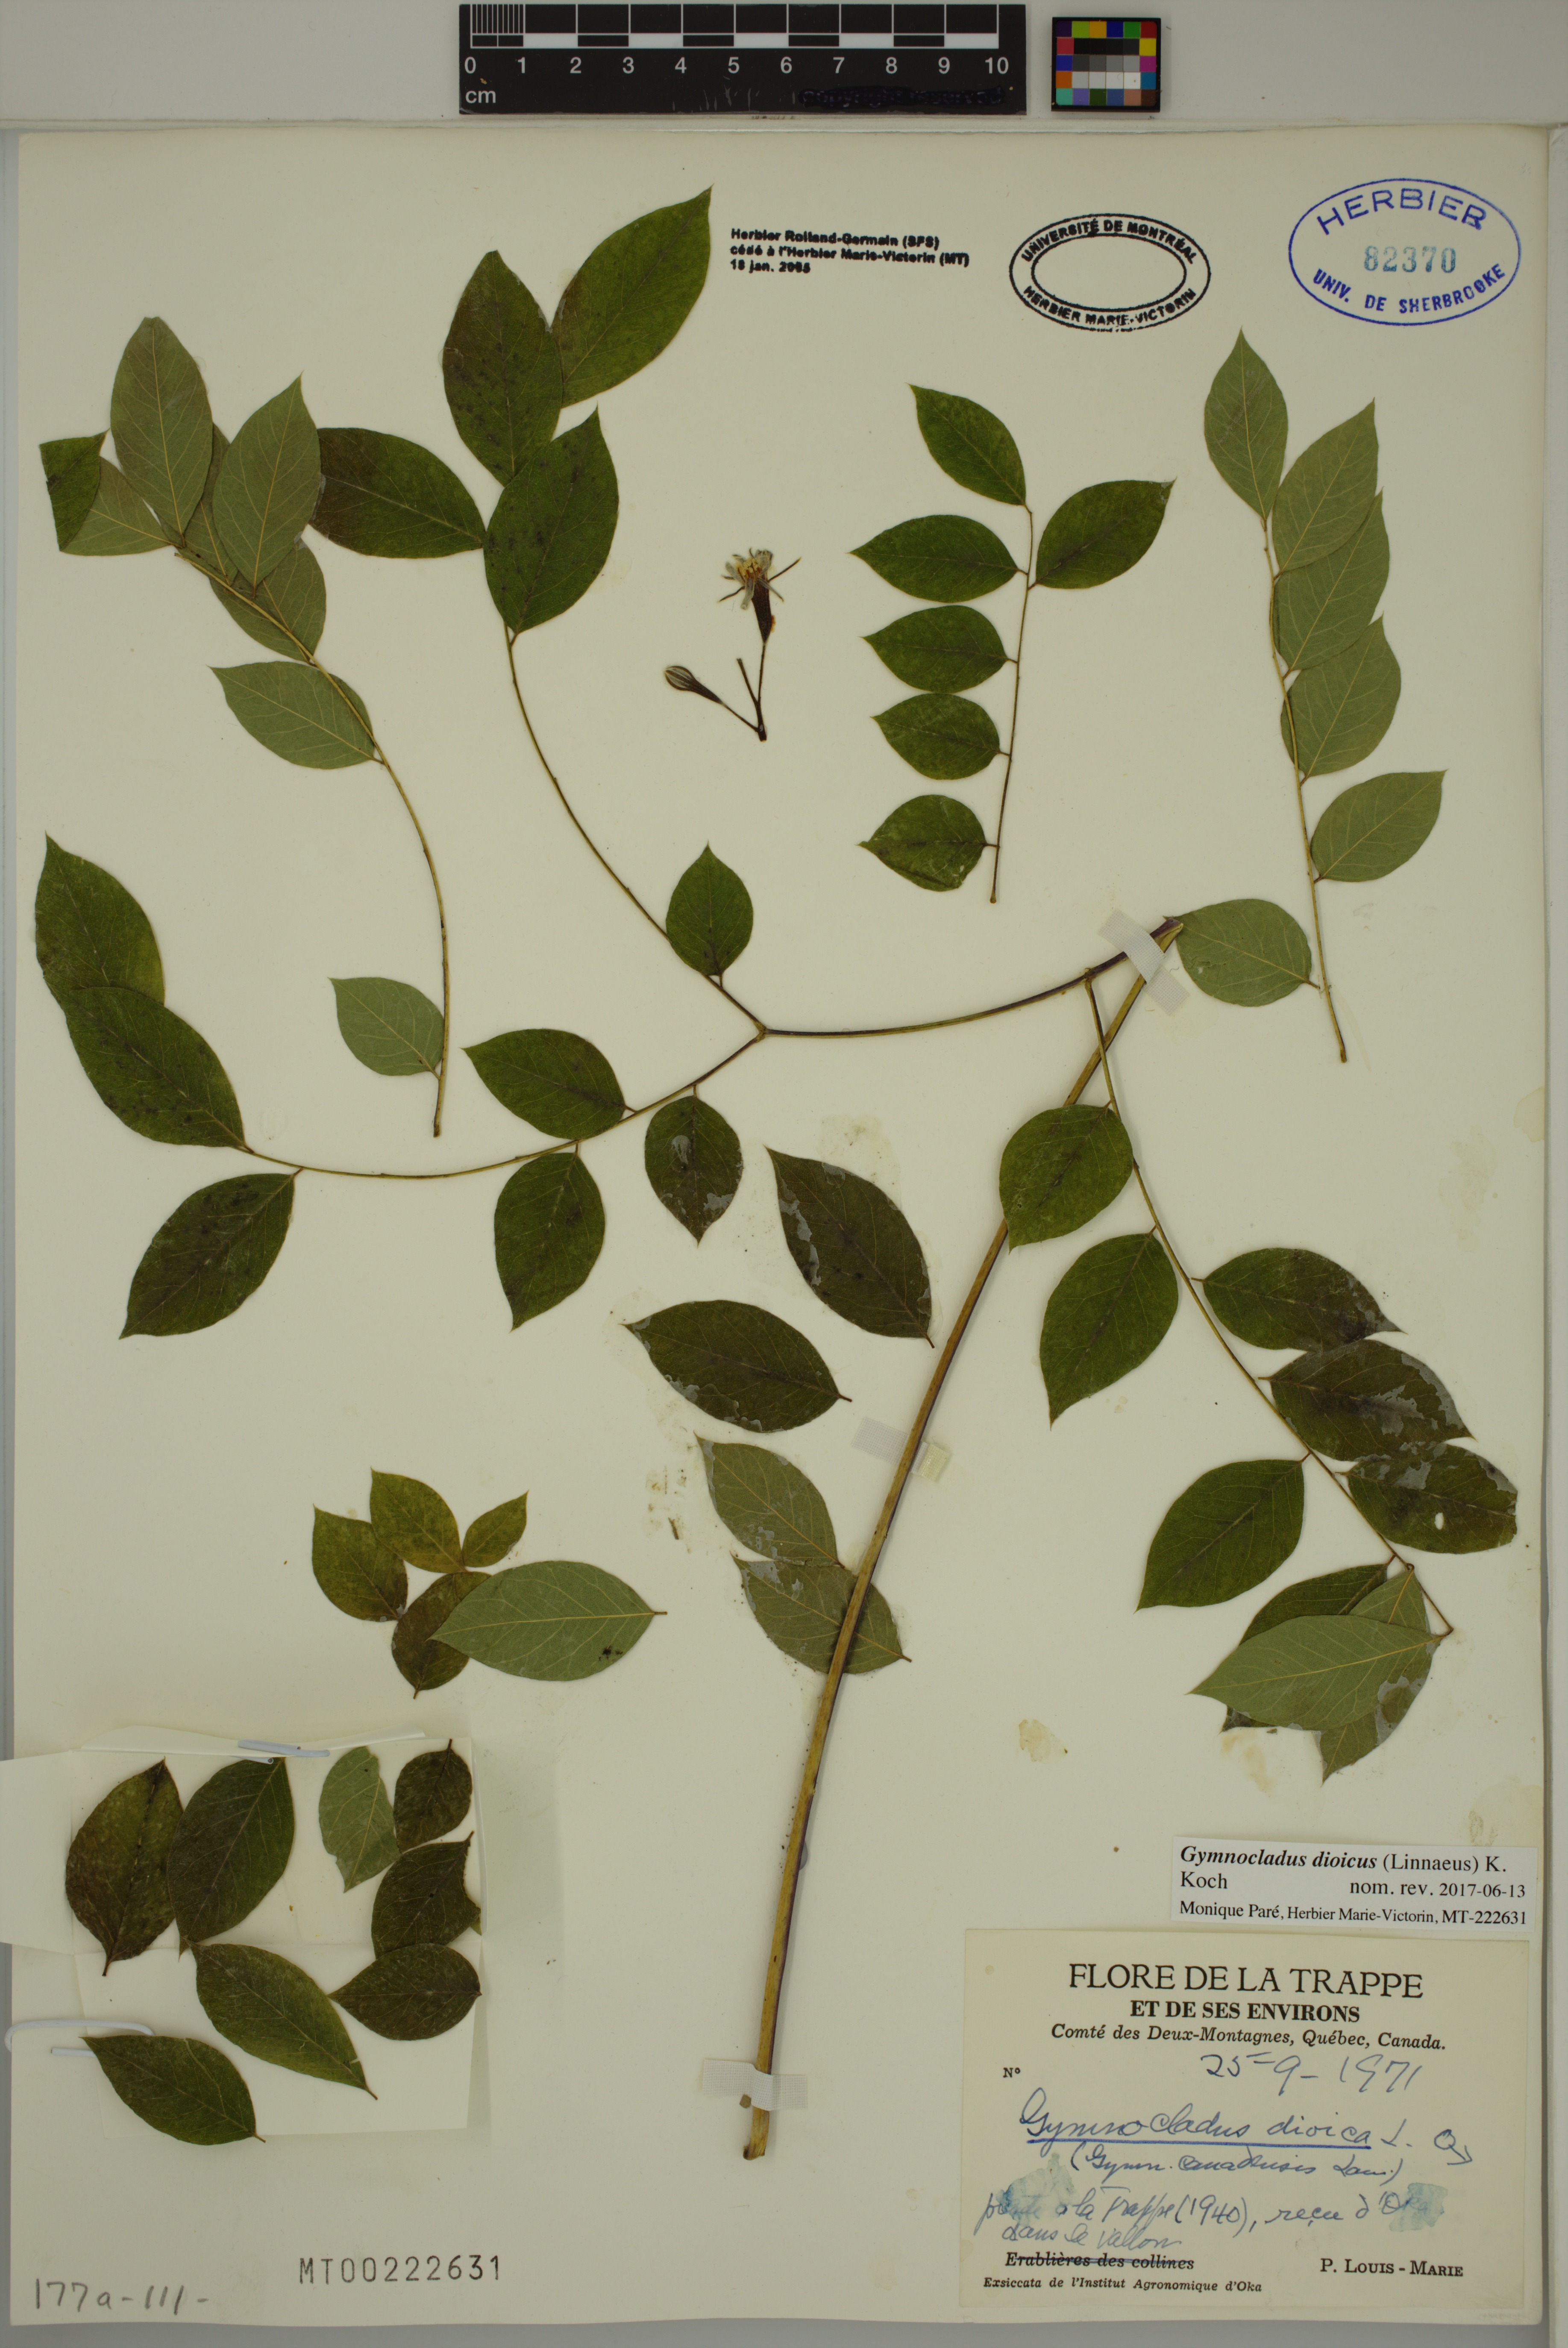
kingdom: Plantae
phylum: Tracheophyta
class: Magnoliopsida
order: Fabales
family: Fabaceae
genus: Gymnocladus
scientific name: Gymnocladus dioicus
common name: Kentucky coffee-tree
